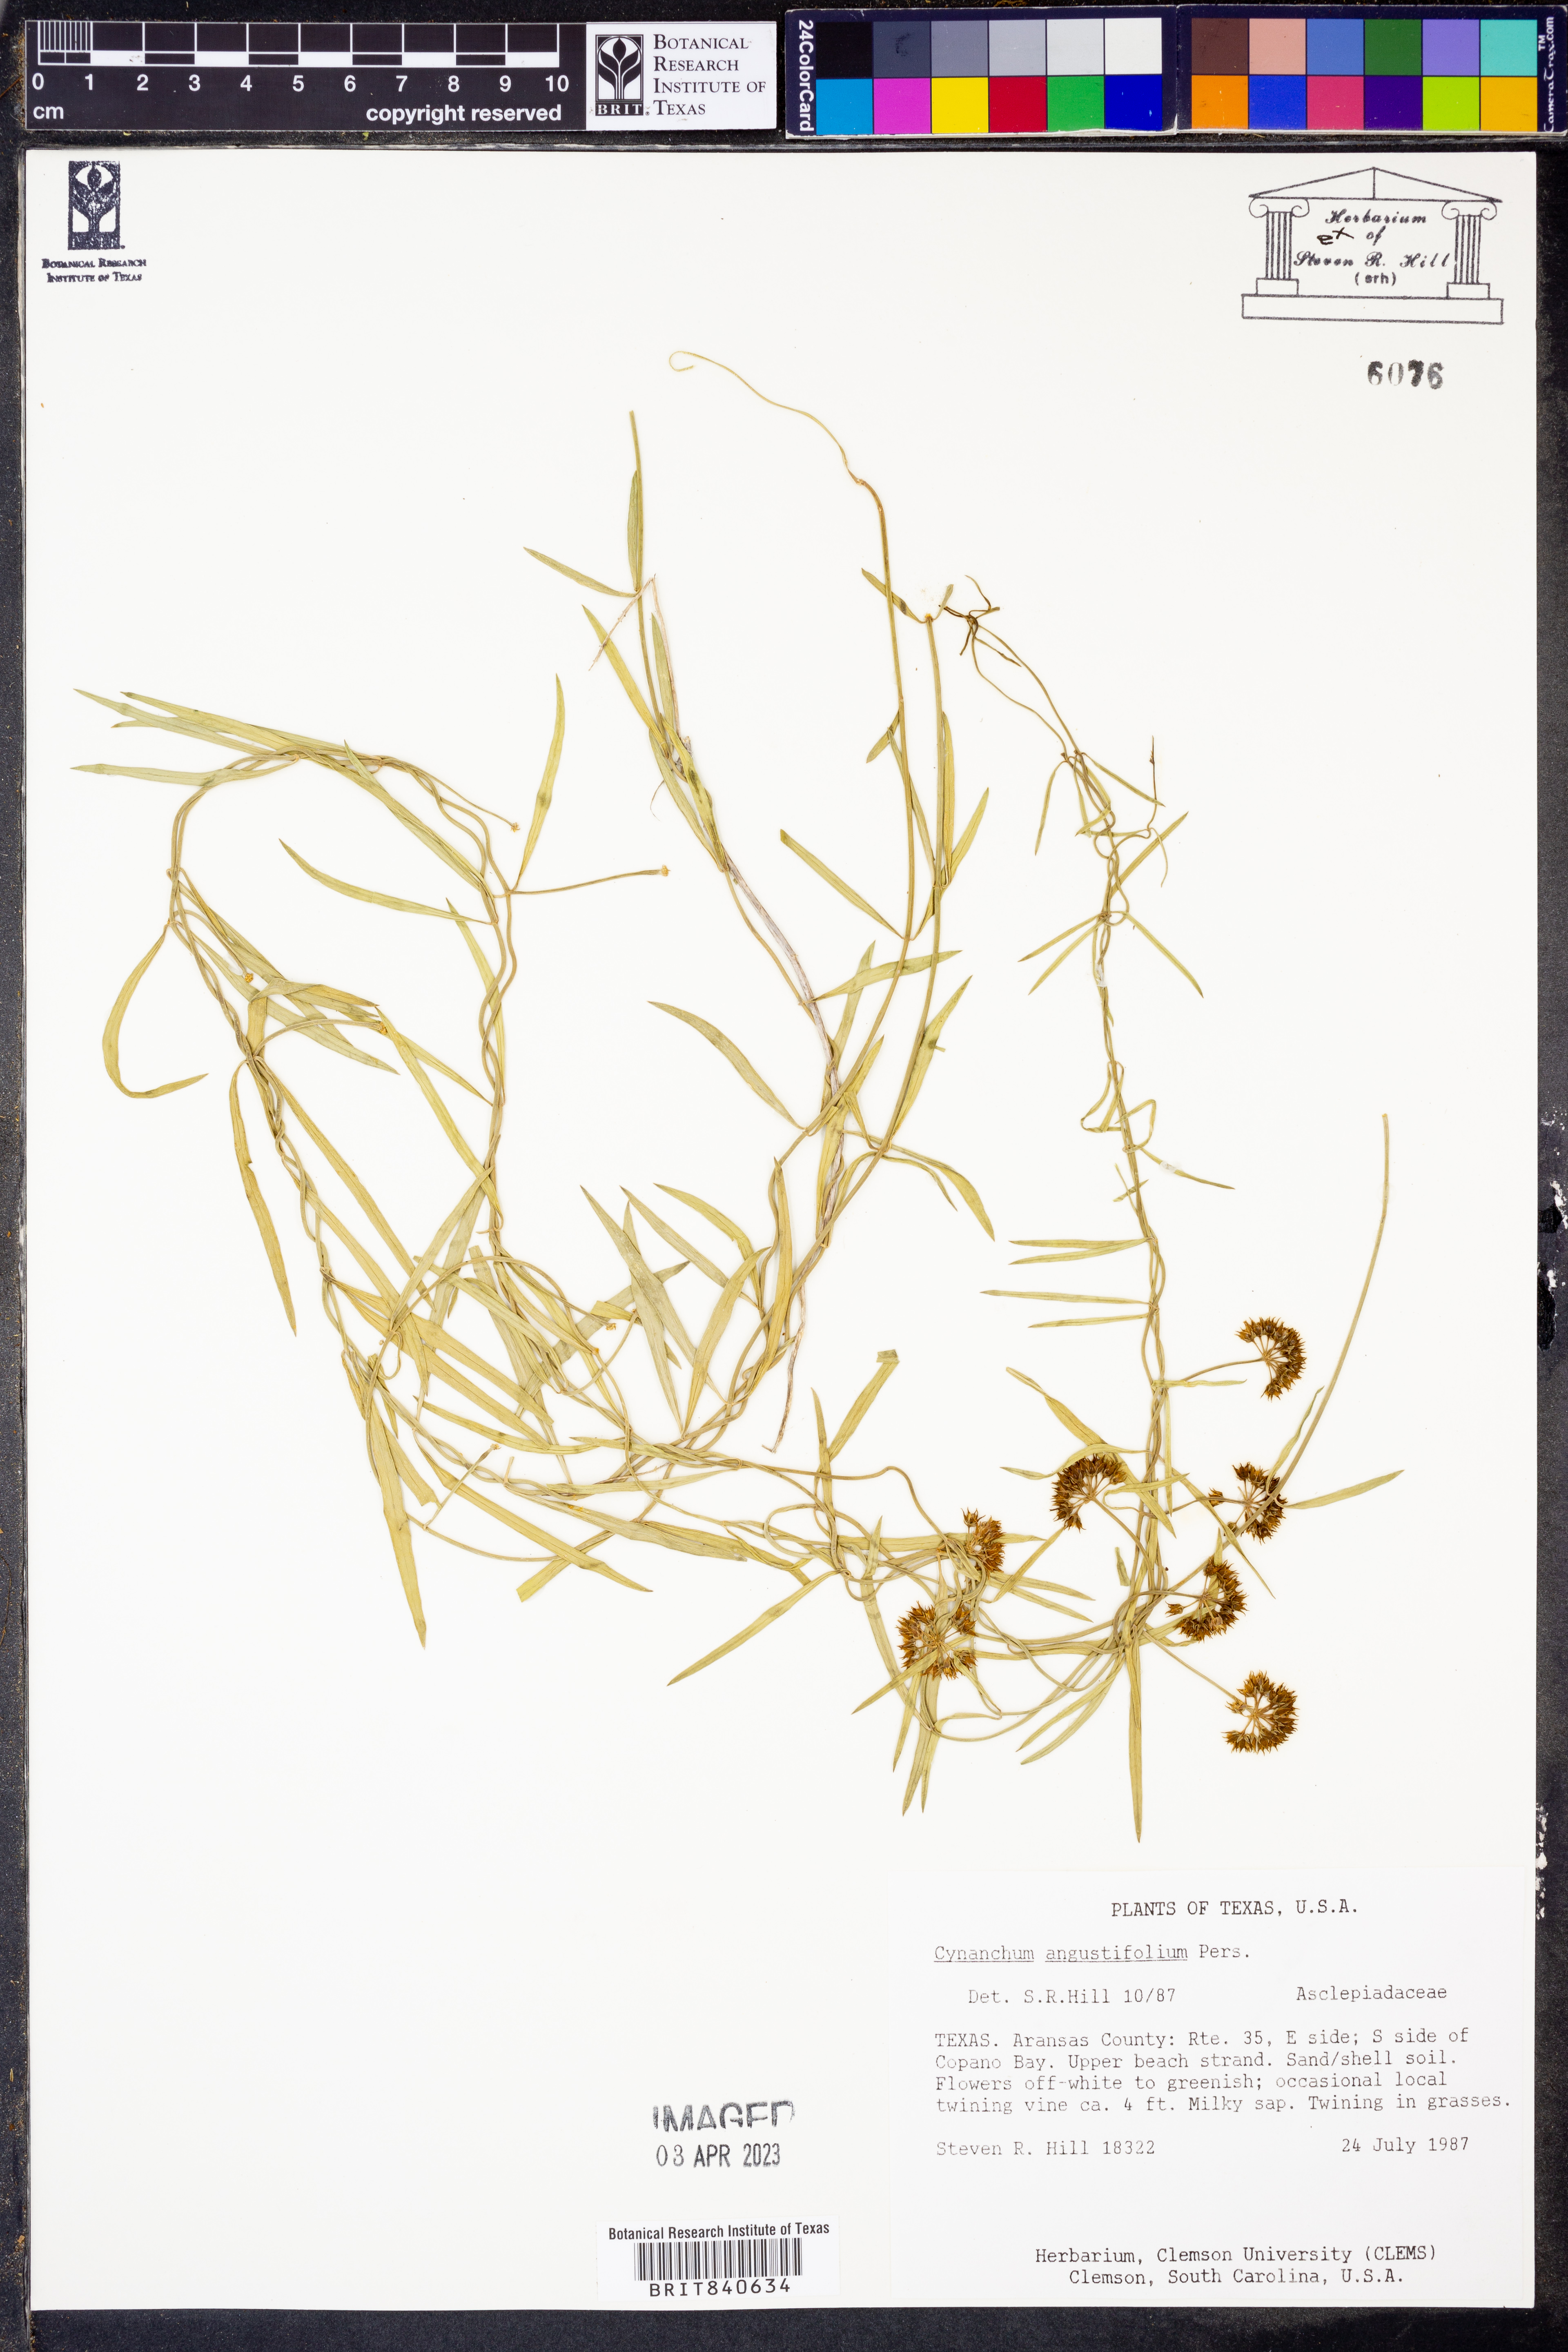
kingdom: Plantae
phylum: Tracheophyta
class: Magnoliopsida
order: Gentianales
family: Apocynaceae
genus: Pattalias
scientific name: Pattalias palustris
